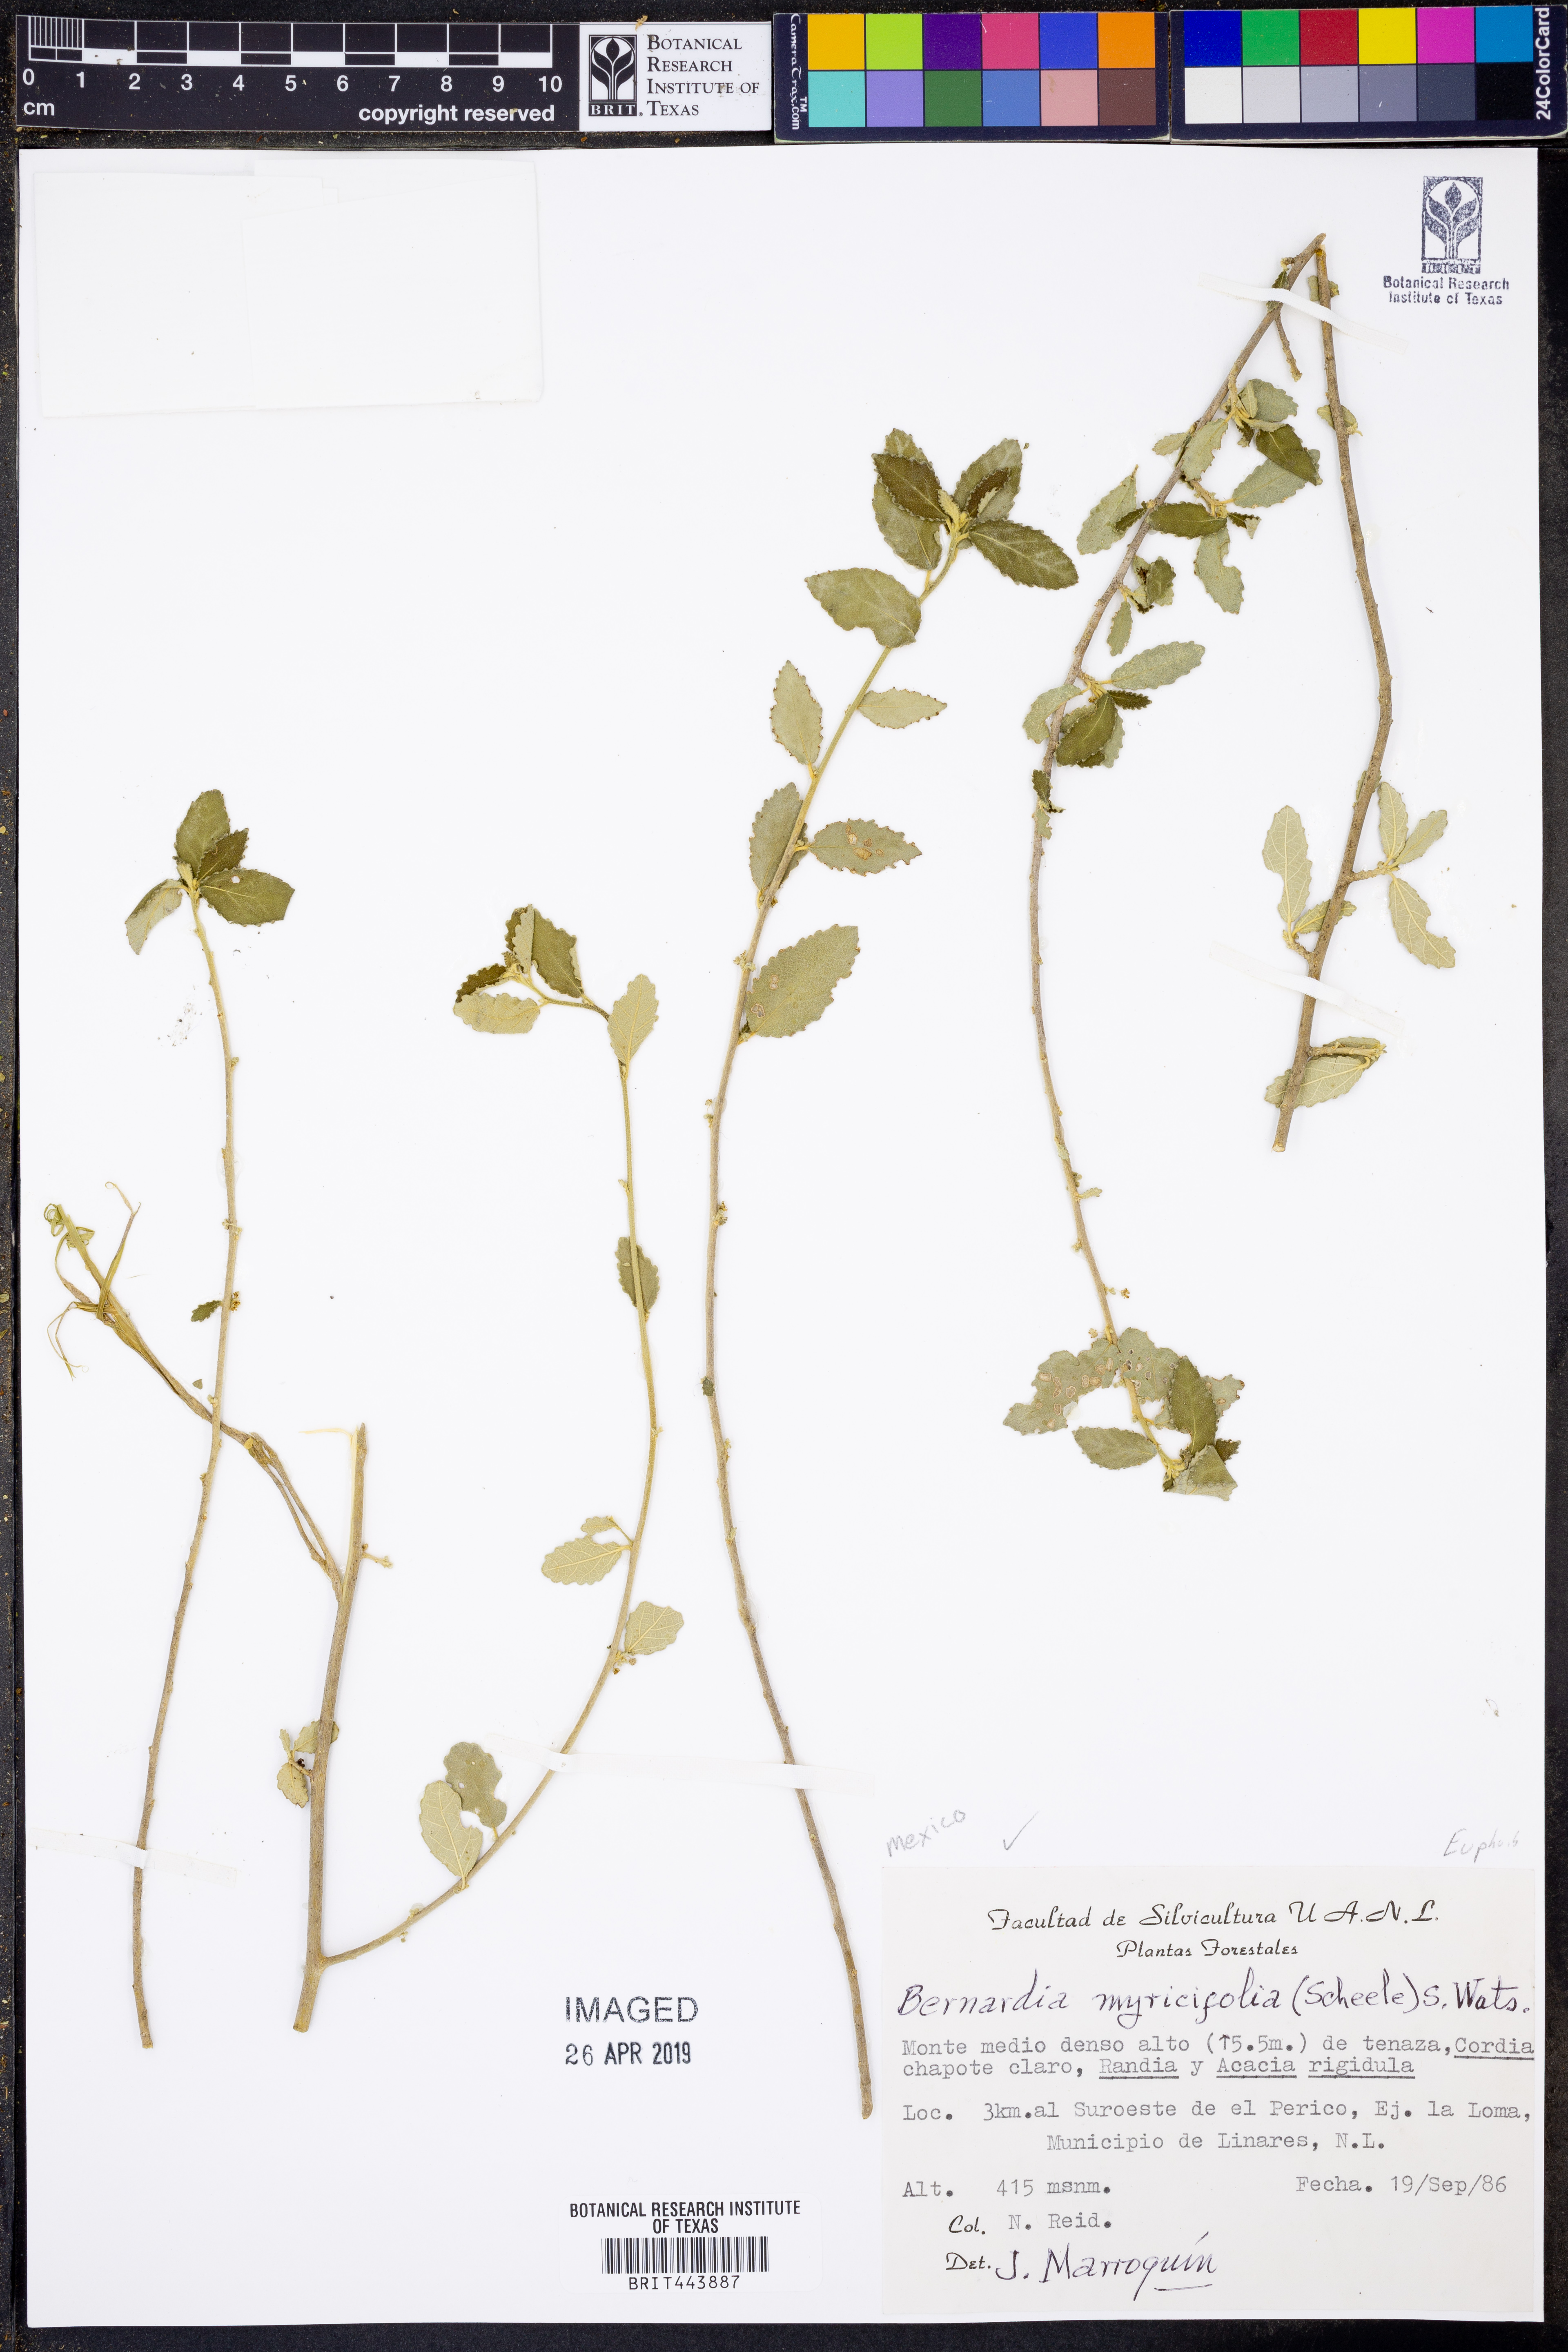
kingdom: Plantae
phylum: Tracheophyta
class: Magnoliopsida
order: Malpighiales
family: Euphorbiaceae
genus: Bernardia
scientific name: Bernardia myricifolia
